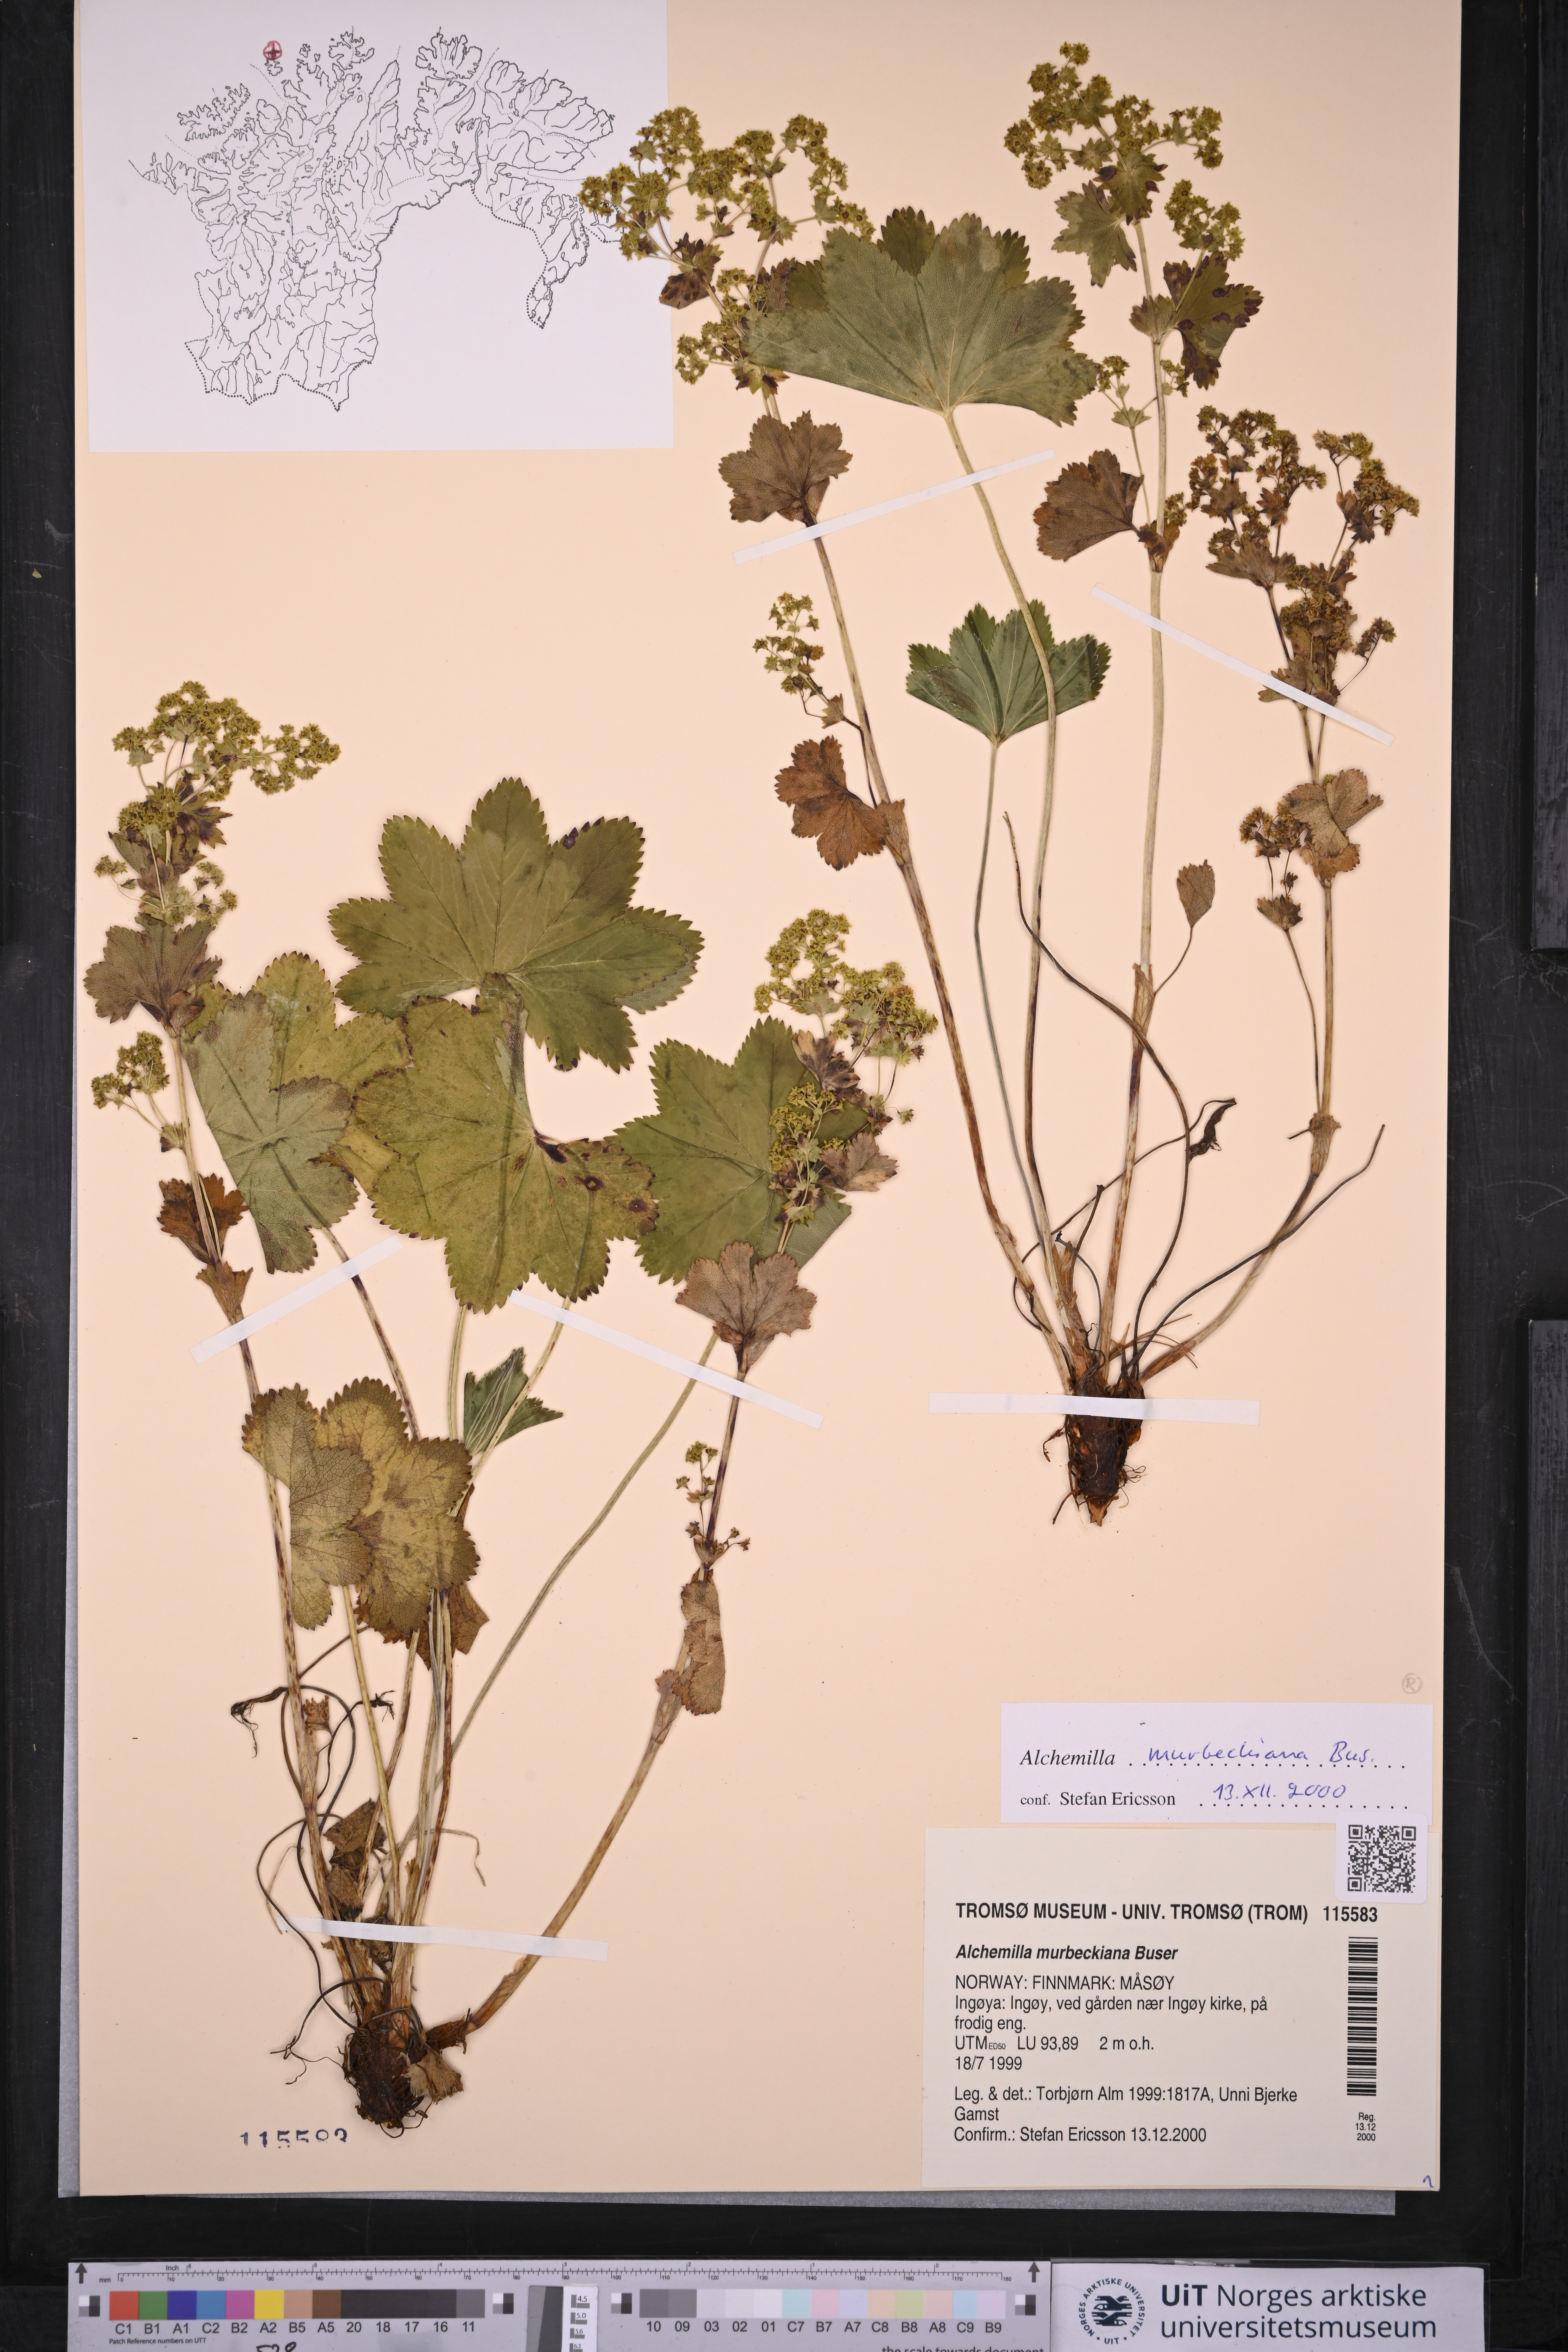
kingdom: Plantae
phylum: Tracheophyta
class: Magnoliopsida
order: Rosales
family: Rosaceae
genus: Alchemilla
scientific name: Alchemilla murbeckiana
